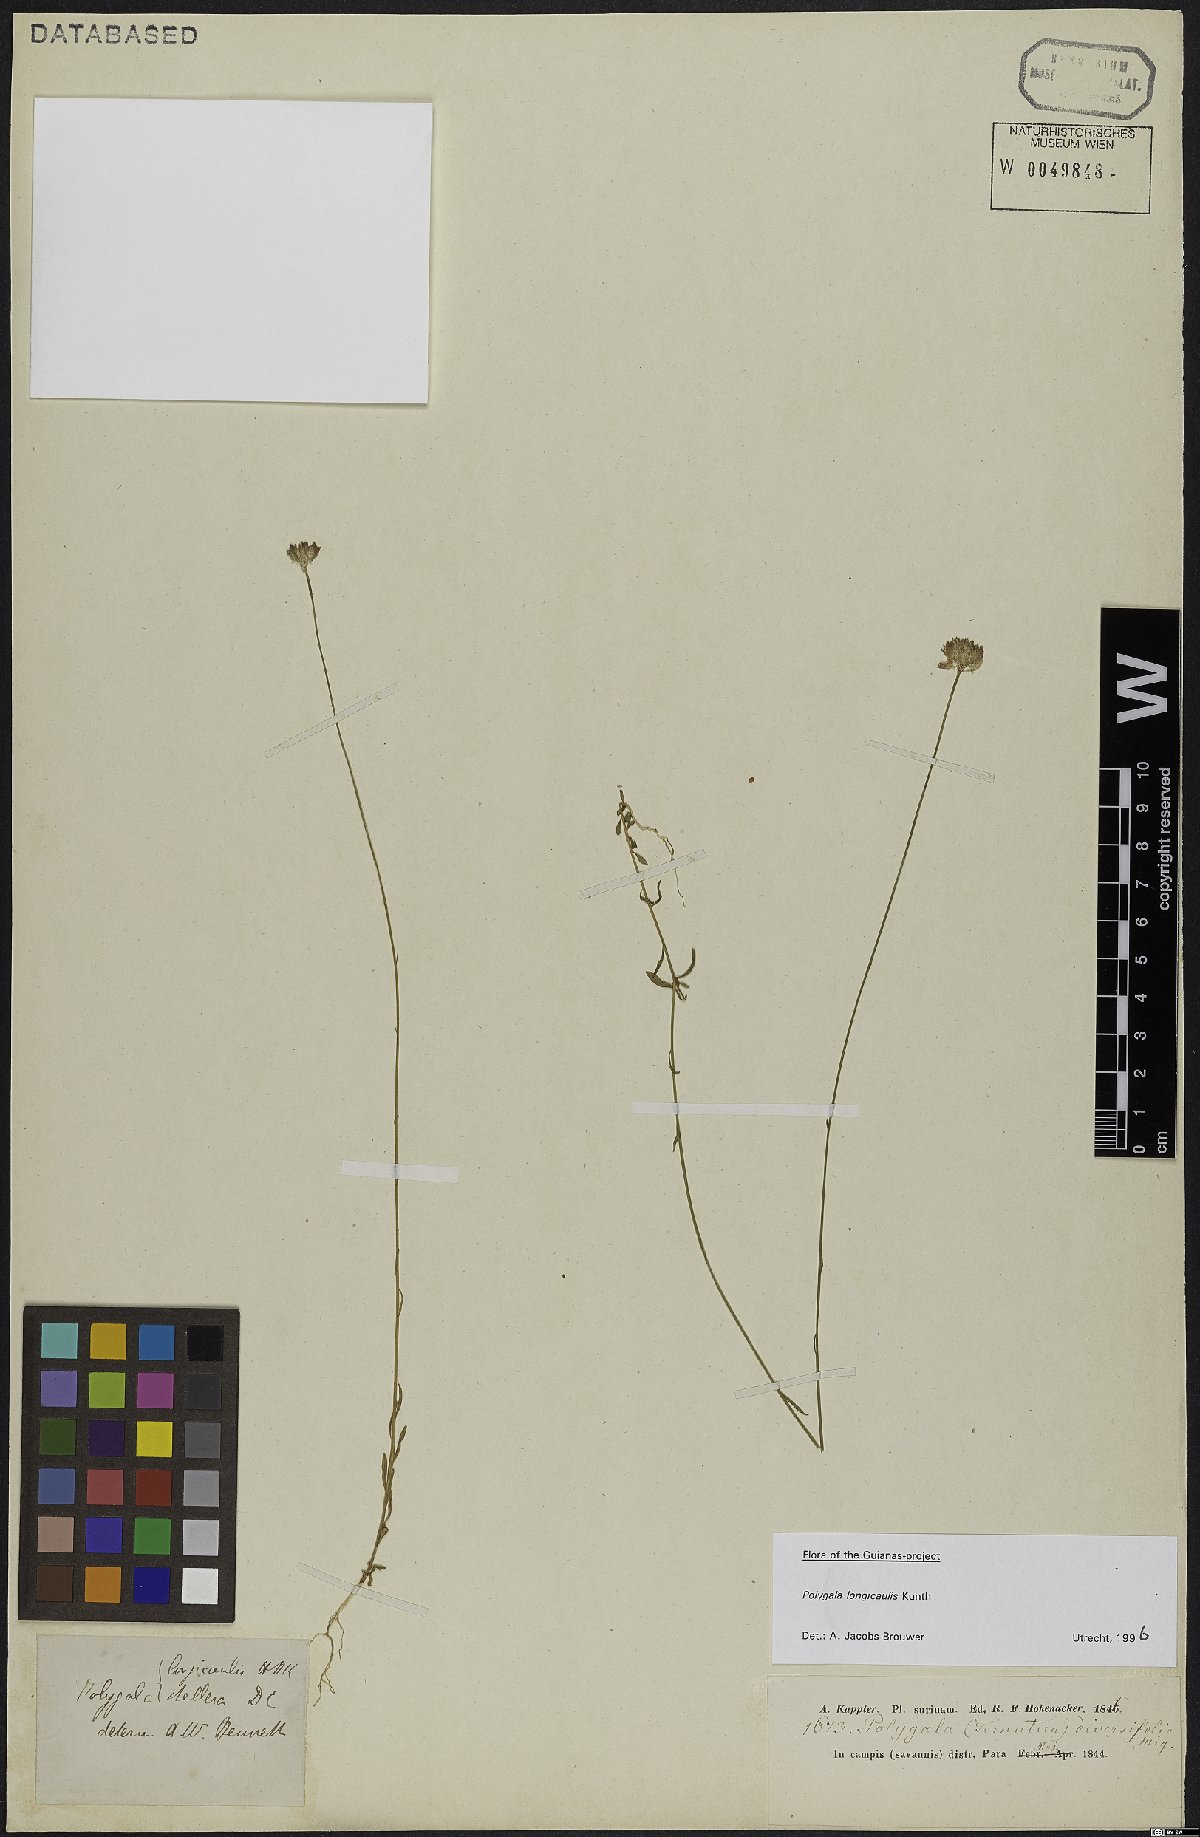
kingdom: Plantae
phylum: Tracheophyta
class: Magnoliopsida
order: Fabales
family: Polygalaceae
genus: Polygala
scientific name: Polygala longicaulis
